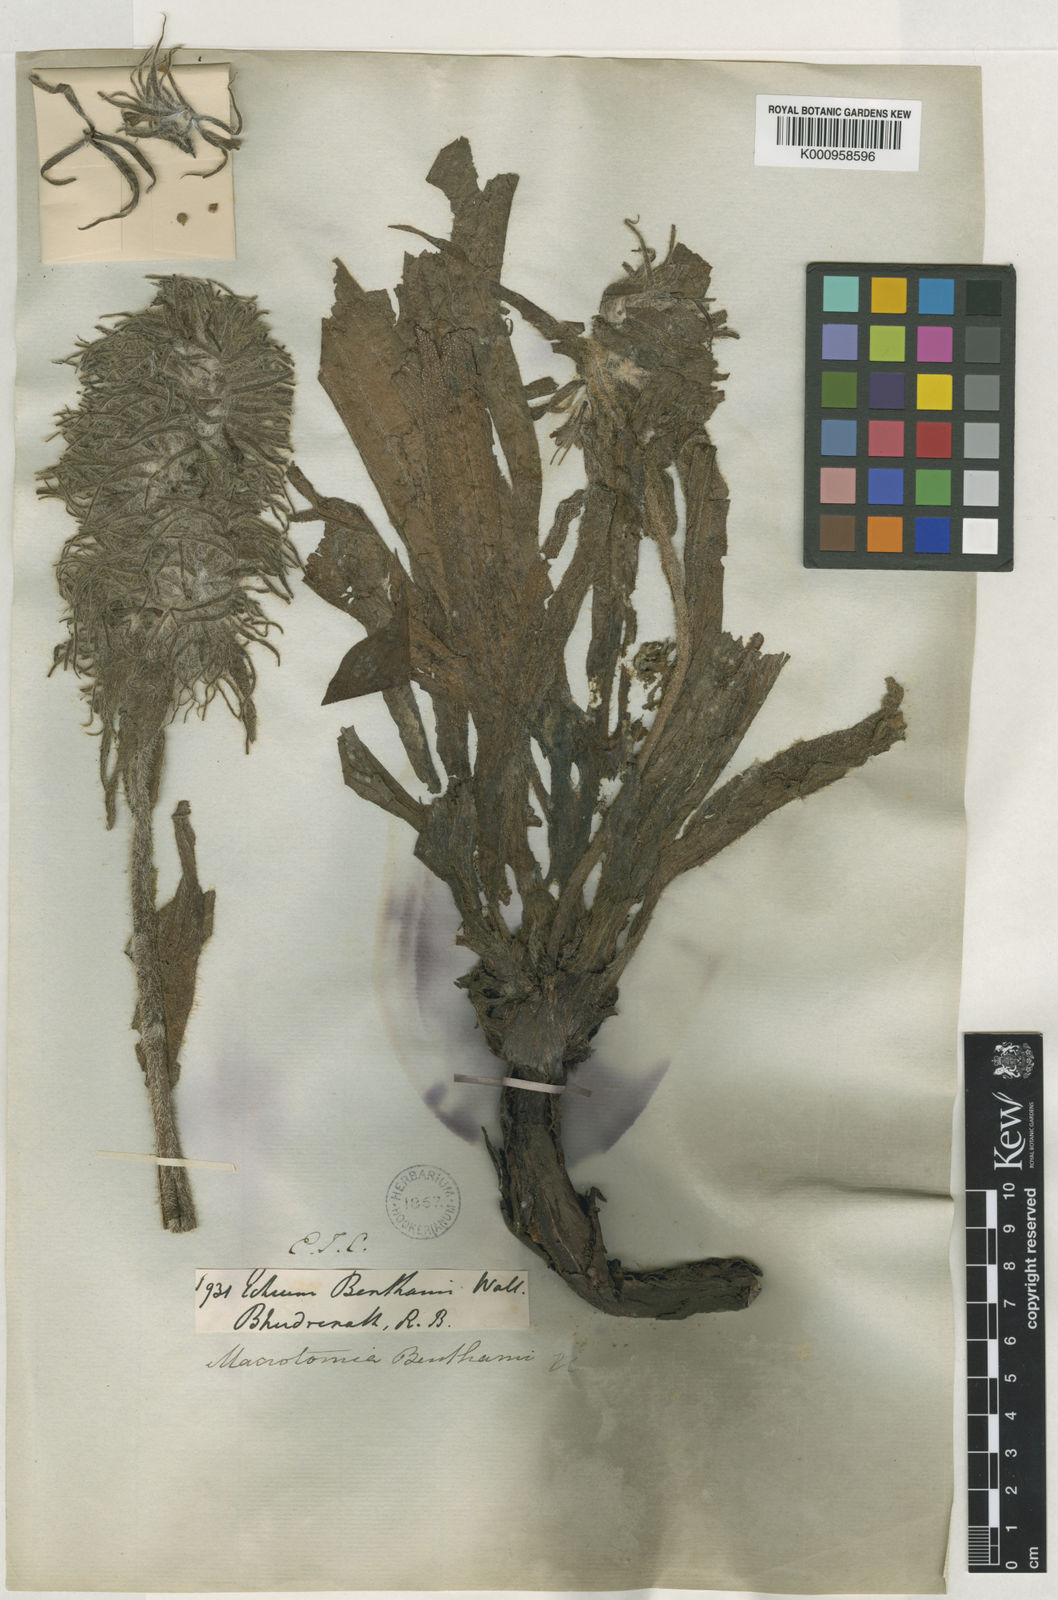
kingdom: Plantae
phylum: Tracheophyta
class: Magnoliopsida
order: Boraginales
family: Boraginaceae
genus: Arnebia
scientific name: Arnebia benthamii
